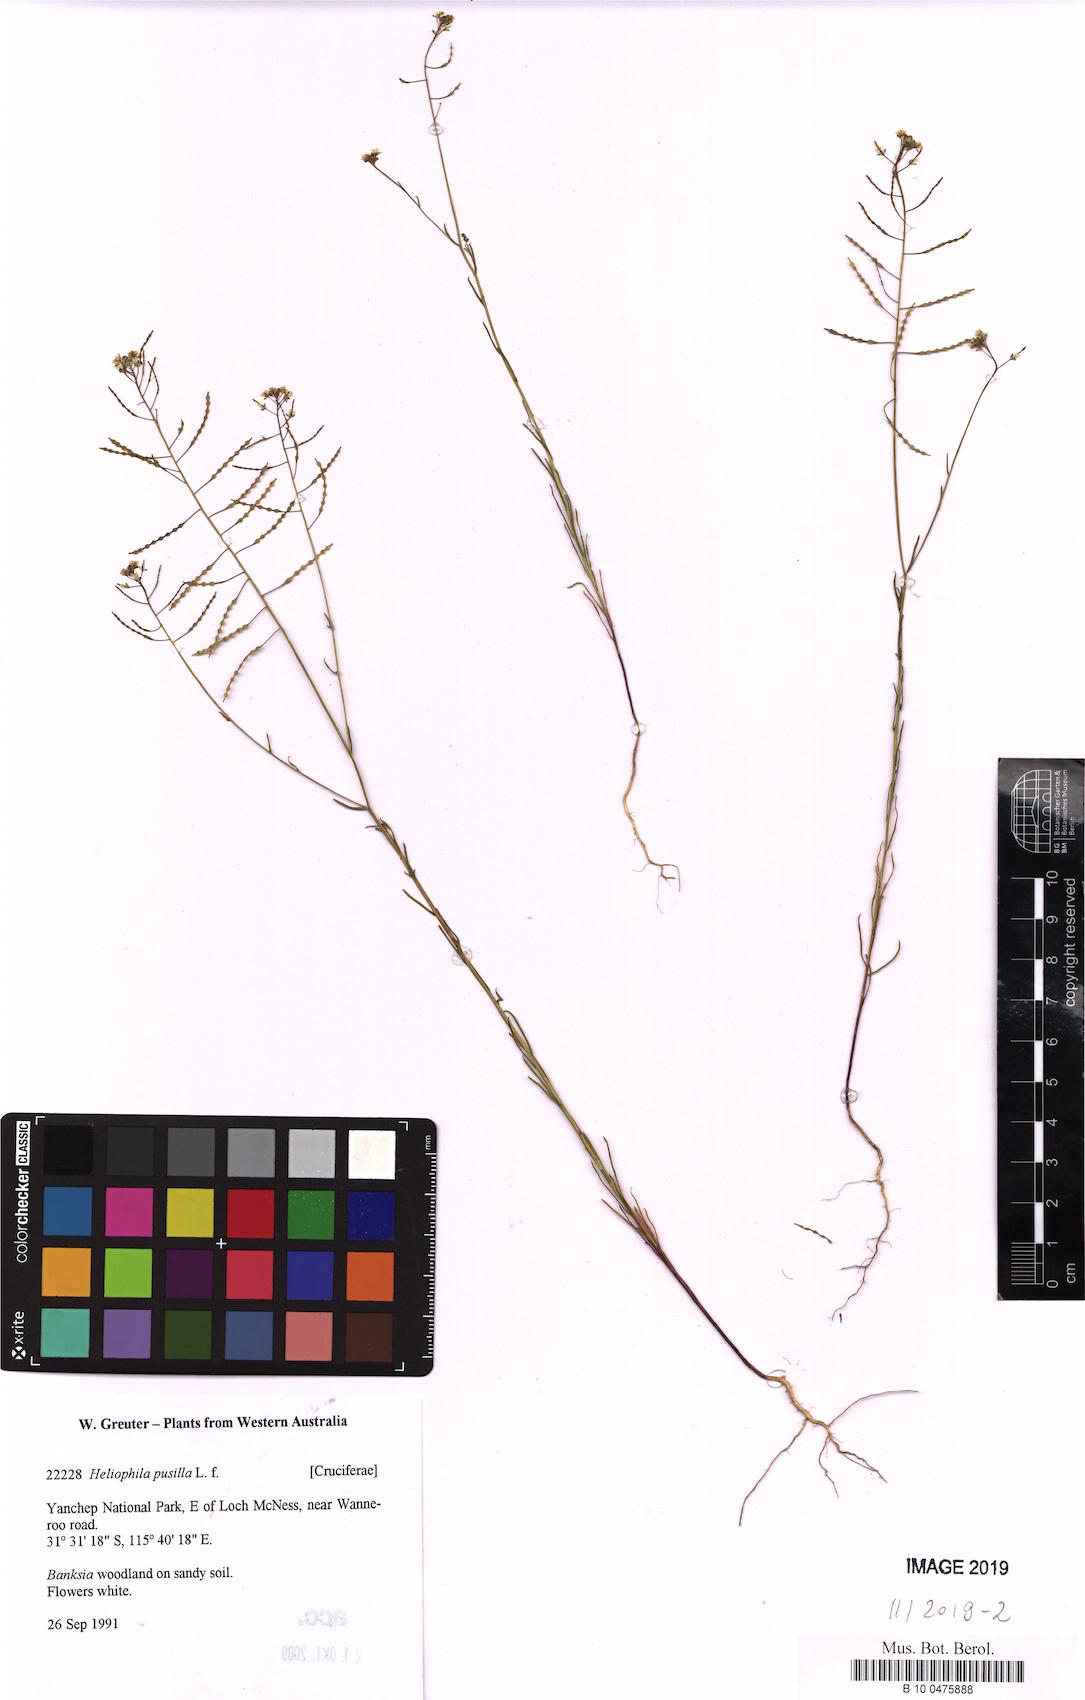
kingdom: Plantae
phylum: Tracheophyta
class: Magnoliopsida
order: Brassicales
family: Brassicaceae
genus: Heliophila
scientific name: Heliophila pusilla
